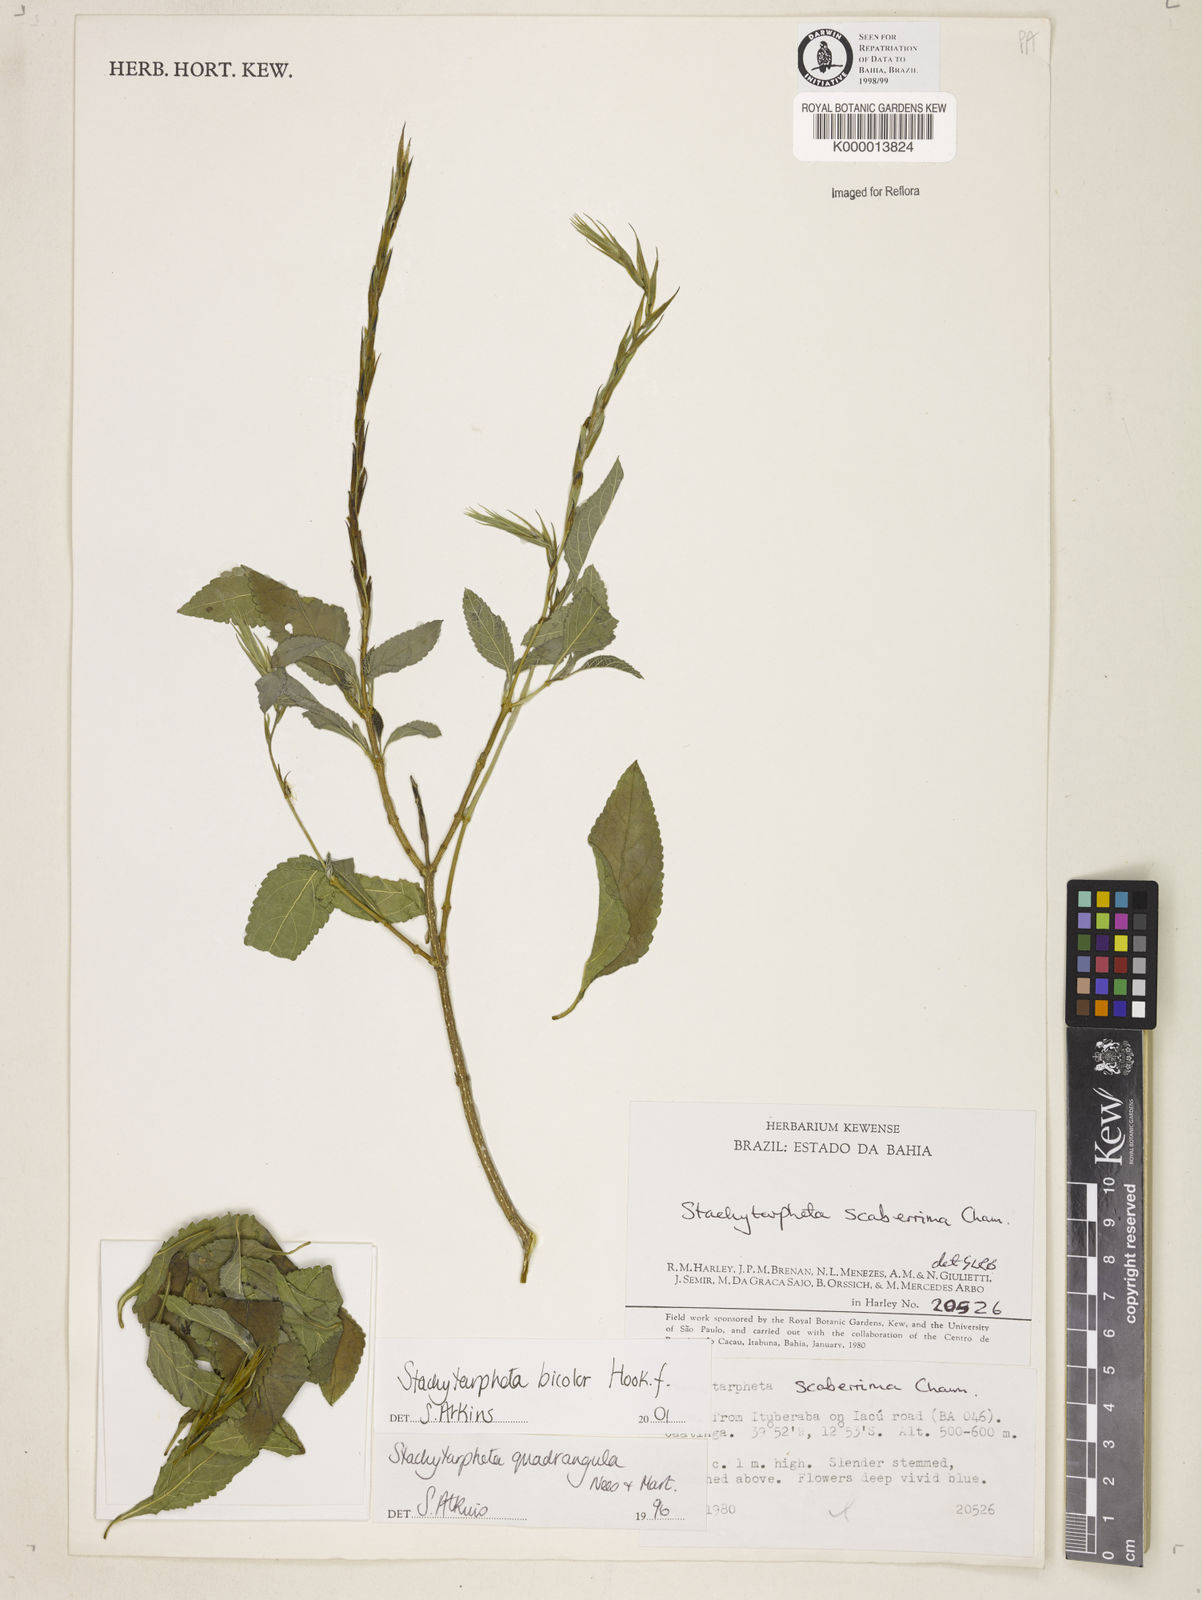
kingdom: Plantae
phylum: Tracheophyta
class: Magnoliopsida
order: Lamiales
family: Verbenaceae
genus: Stachytarpheta
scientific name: Stachytarpheta bicolor
